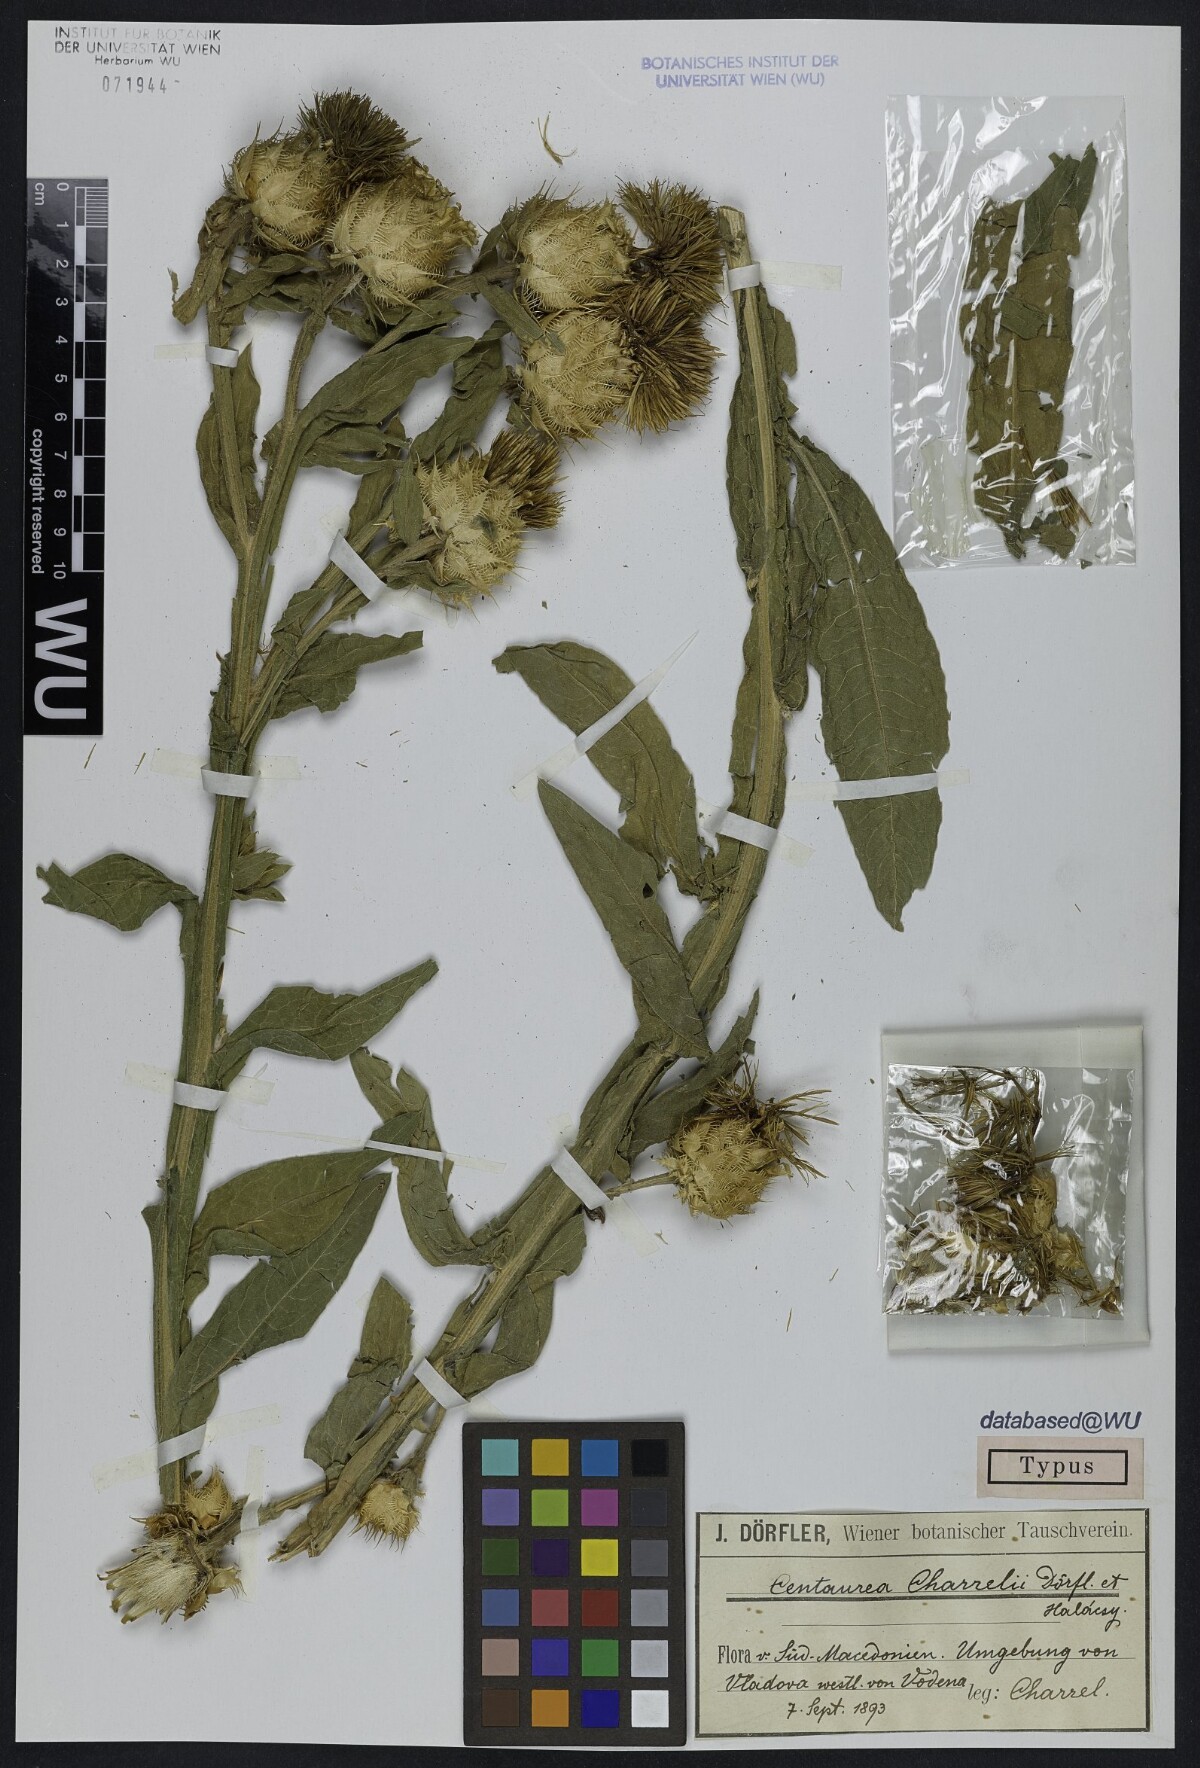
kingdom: Plantae
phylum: Tracheophyta
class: Magnoliopsida
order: Asterales
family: Asteraceae
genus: Centaurea
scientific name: Centaurea charrelii
